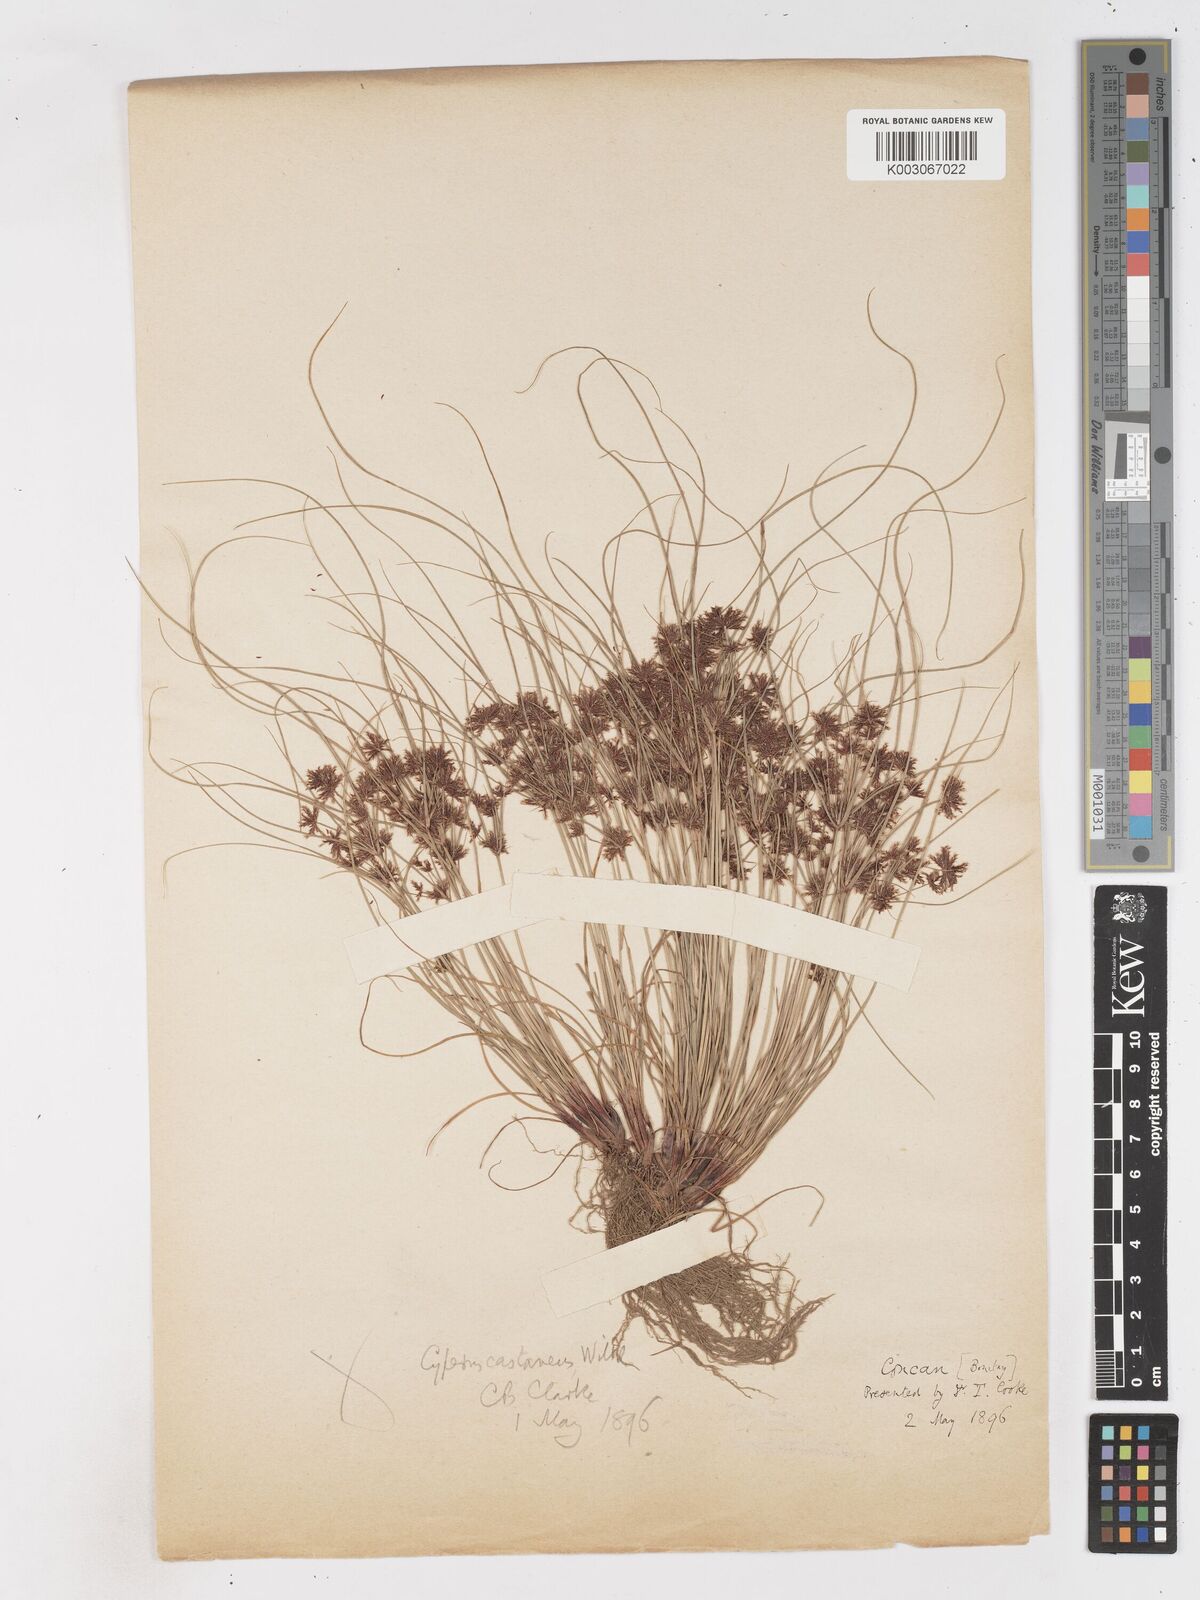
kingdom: Plantae
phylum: Tracheophyta
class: Liliopsida
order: Poales
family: Cyperaceae
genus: Cyperus
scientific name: Cyperus castaneus
